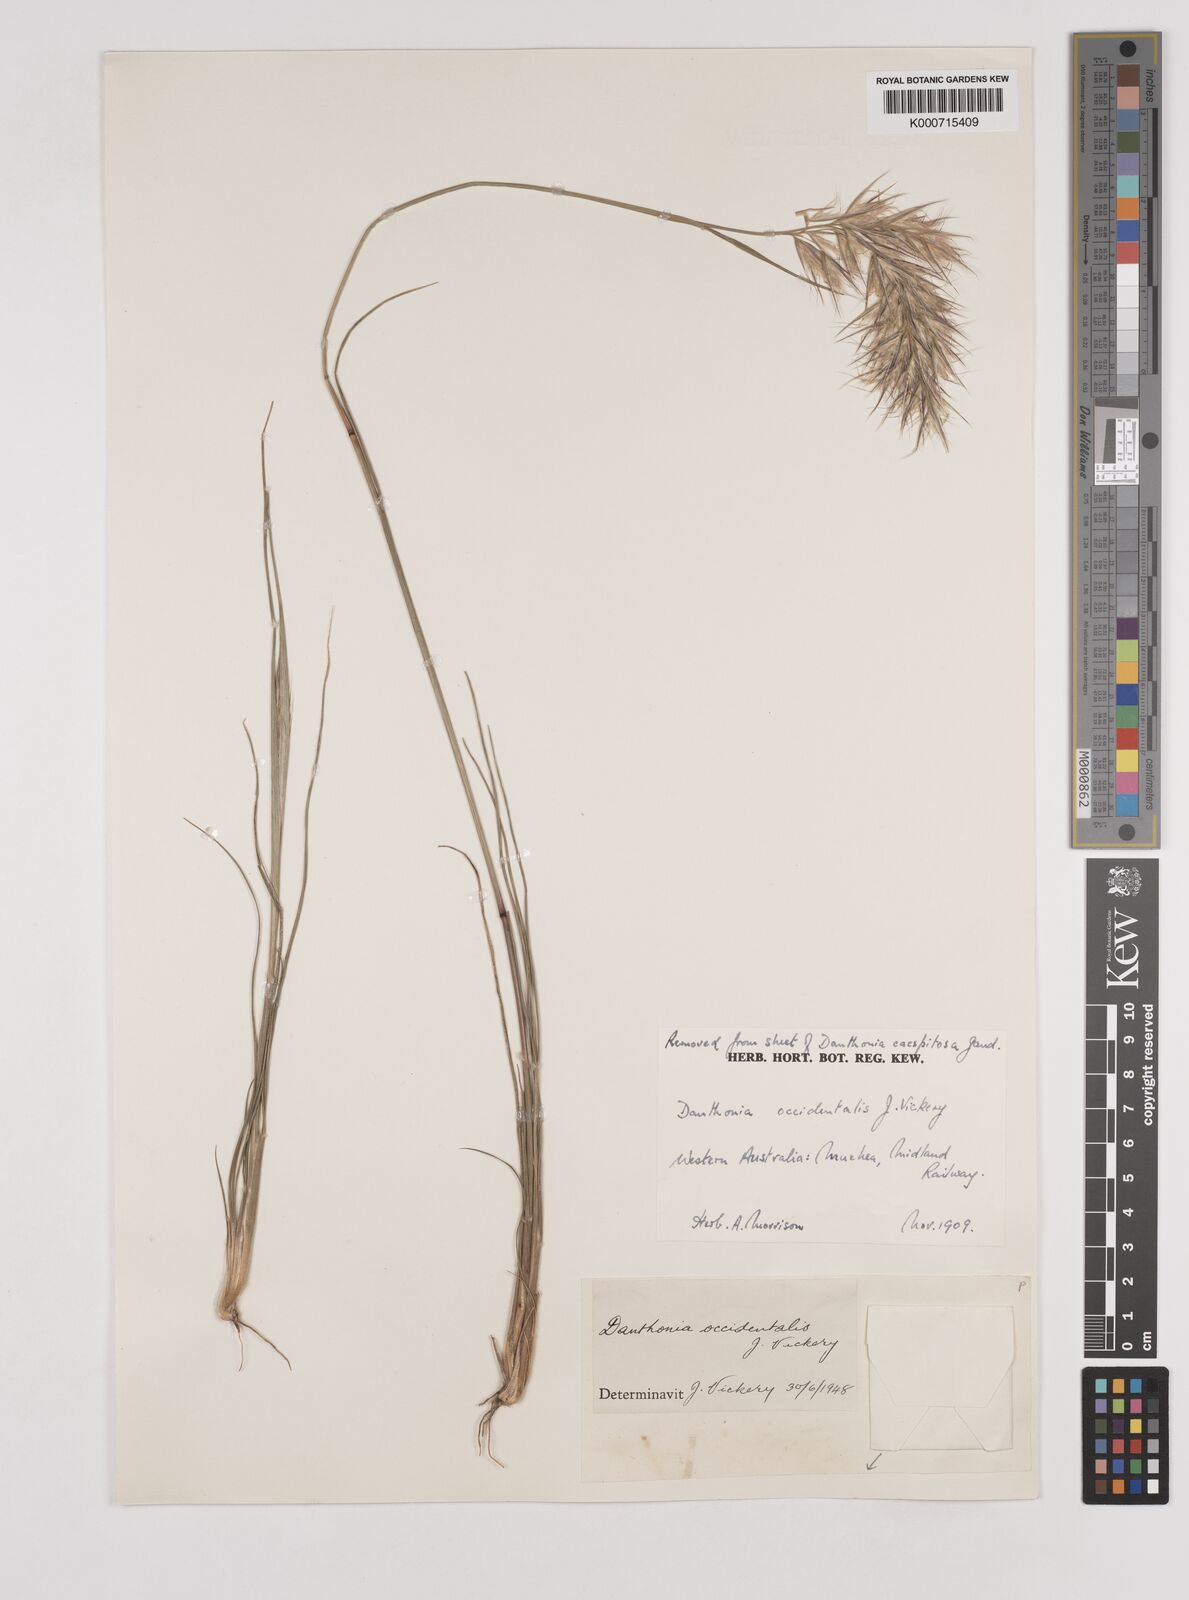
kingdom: Plantae
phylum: Tracheophyta
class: Liliopsida
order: Poales
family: Poaceae
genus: Rytidosperma
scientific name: Rytidosperma occidentale
